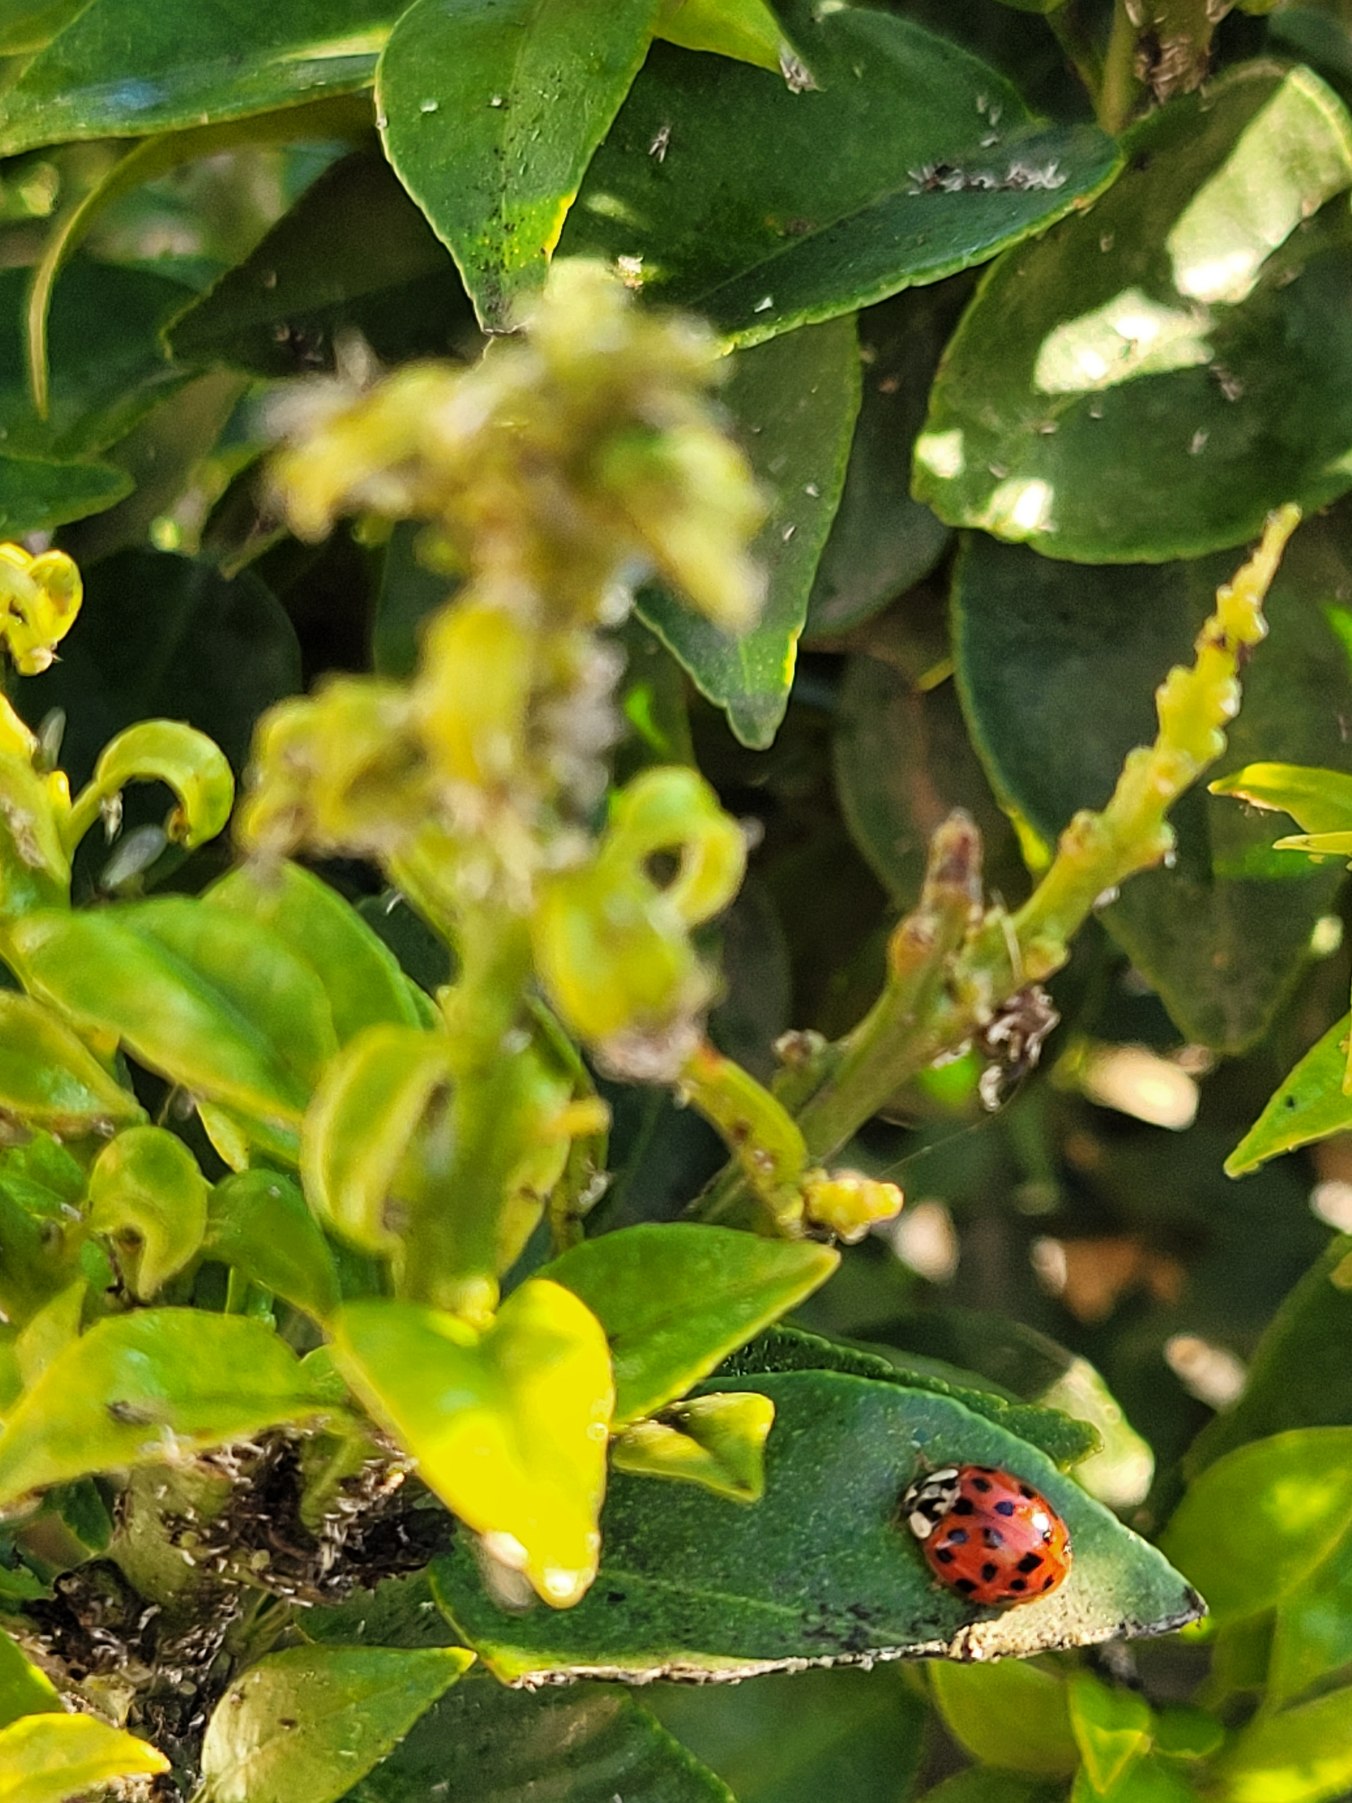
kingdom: Animalia
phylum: Arthropoda
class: Insecta
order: Coleoptera
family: Coccinellidae
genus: Harmonia
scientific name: Harmonia axyridis
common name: Harlekinmariehøne
